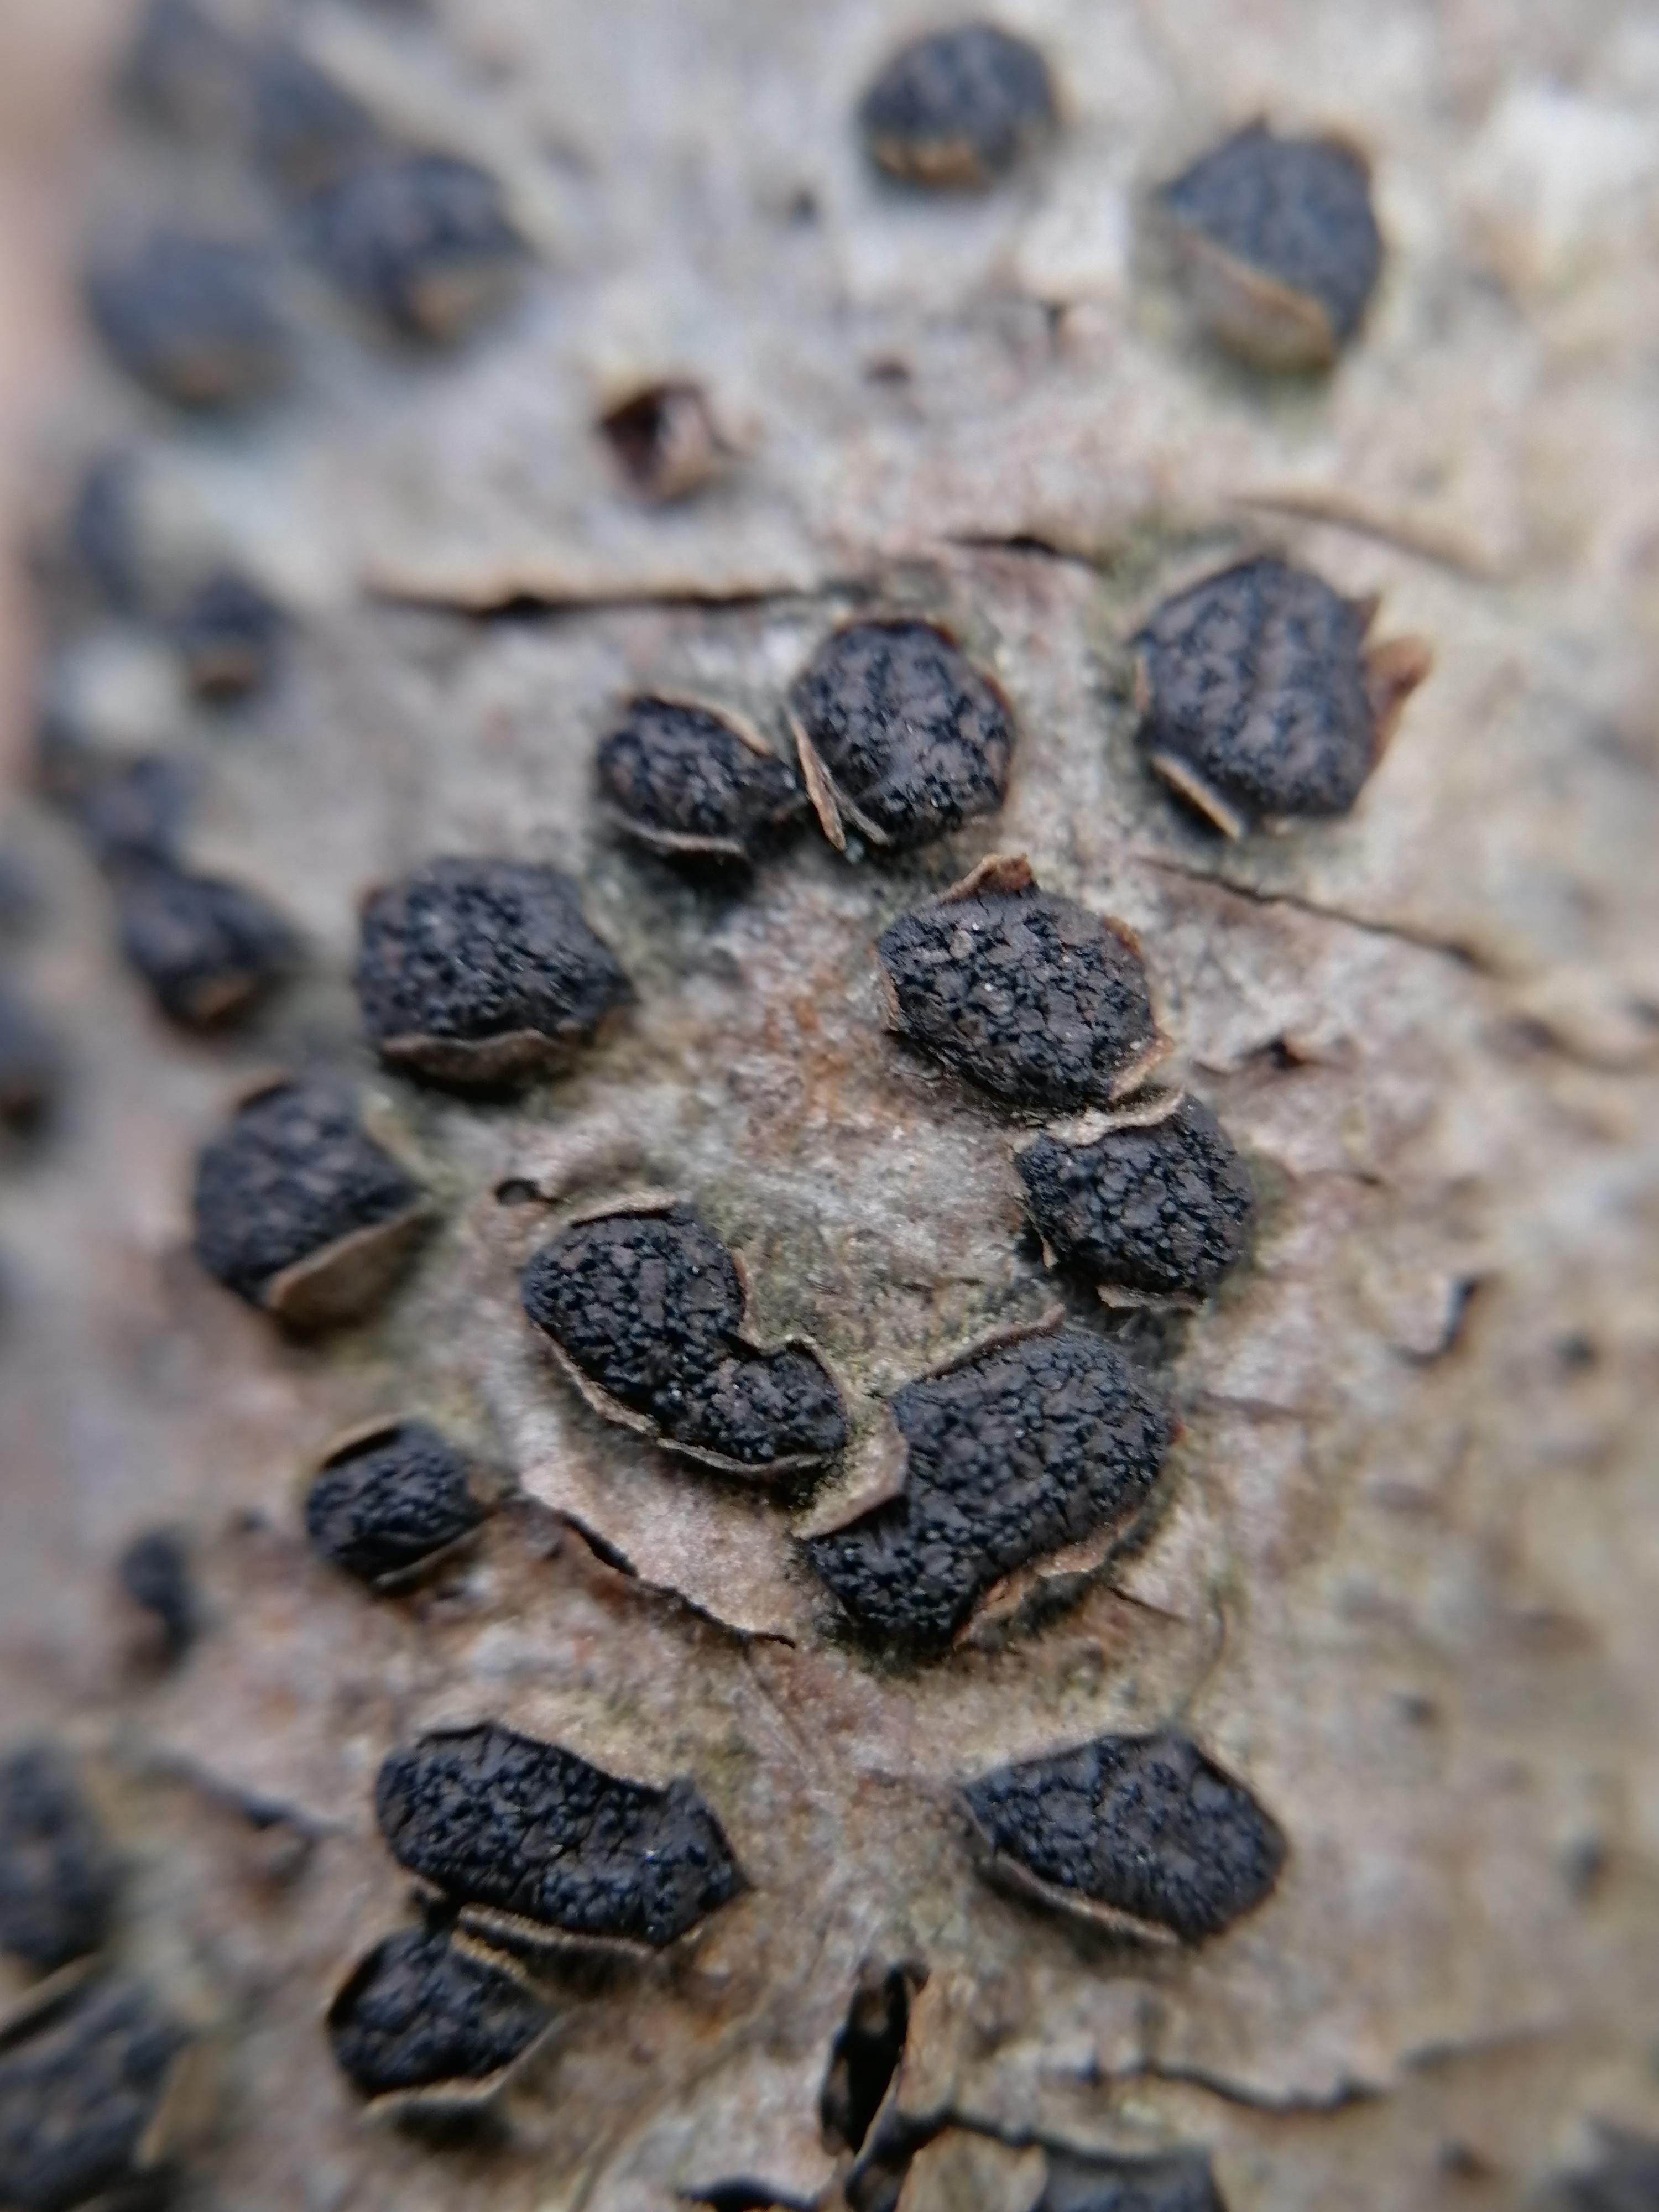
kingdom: Fungi
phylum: Ascomycota
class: Sordariomycetes
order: Xylariales
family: Diatrypaceae
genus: Diatrypella
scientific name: Diatrypella quercina
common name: ege-kulskorpe
